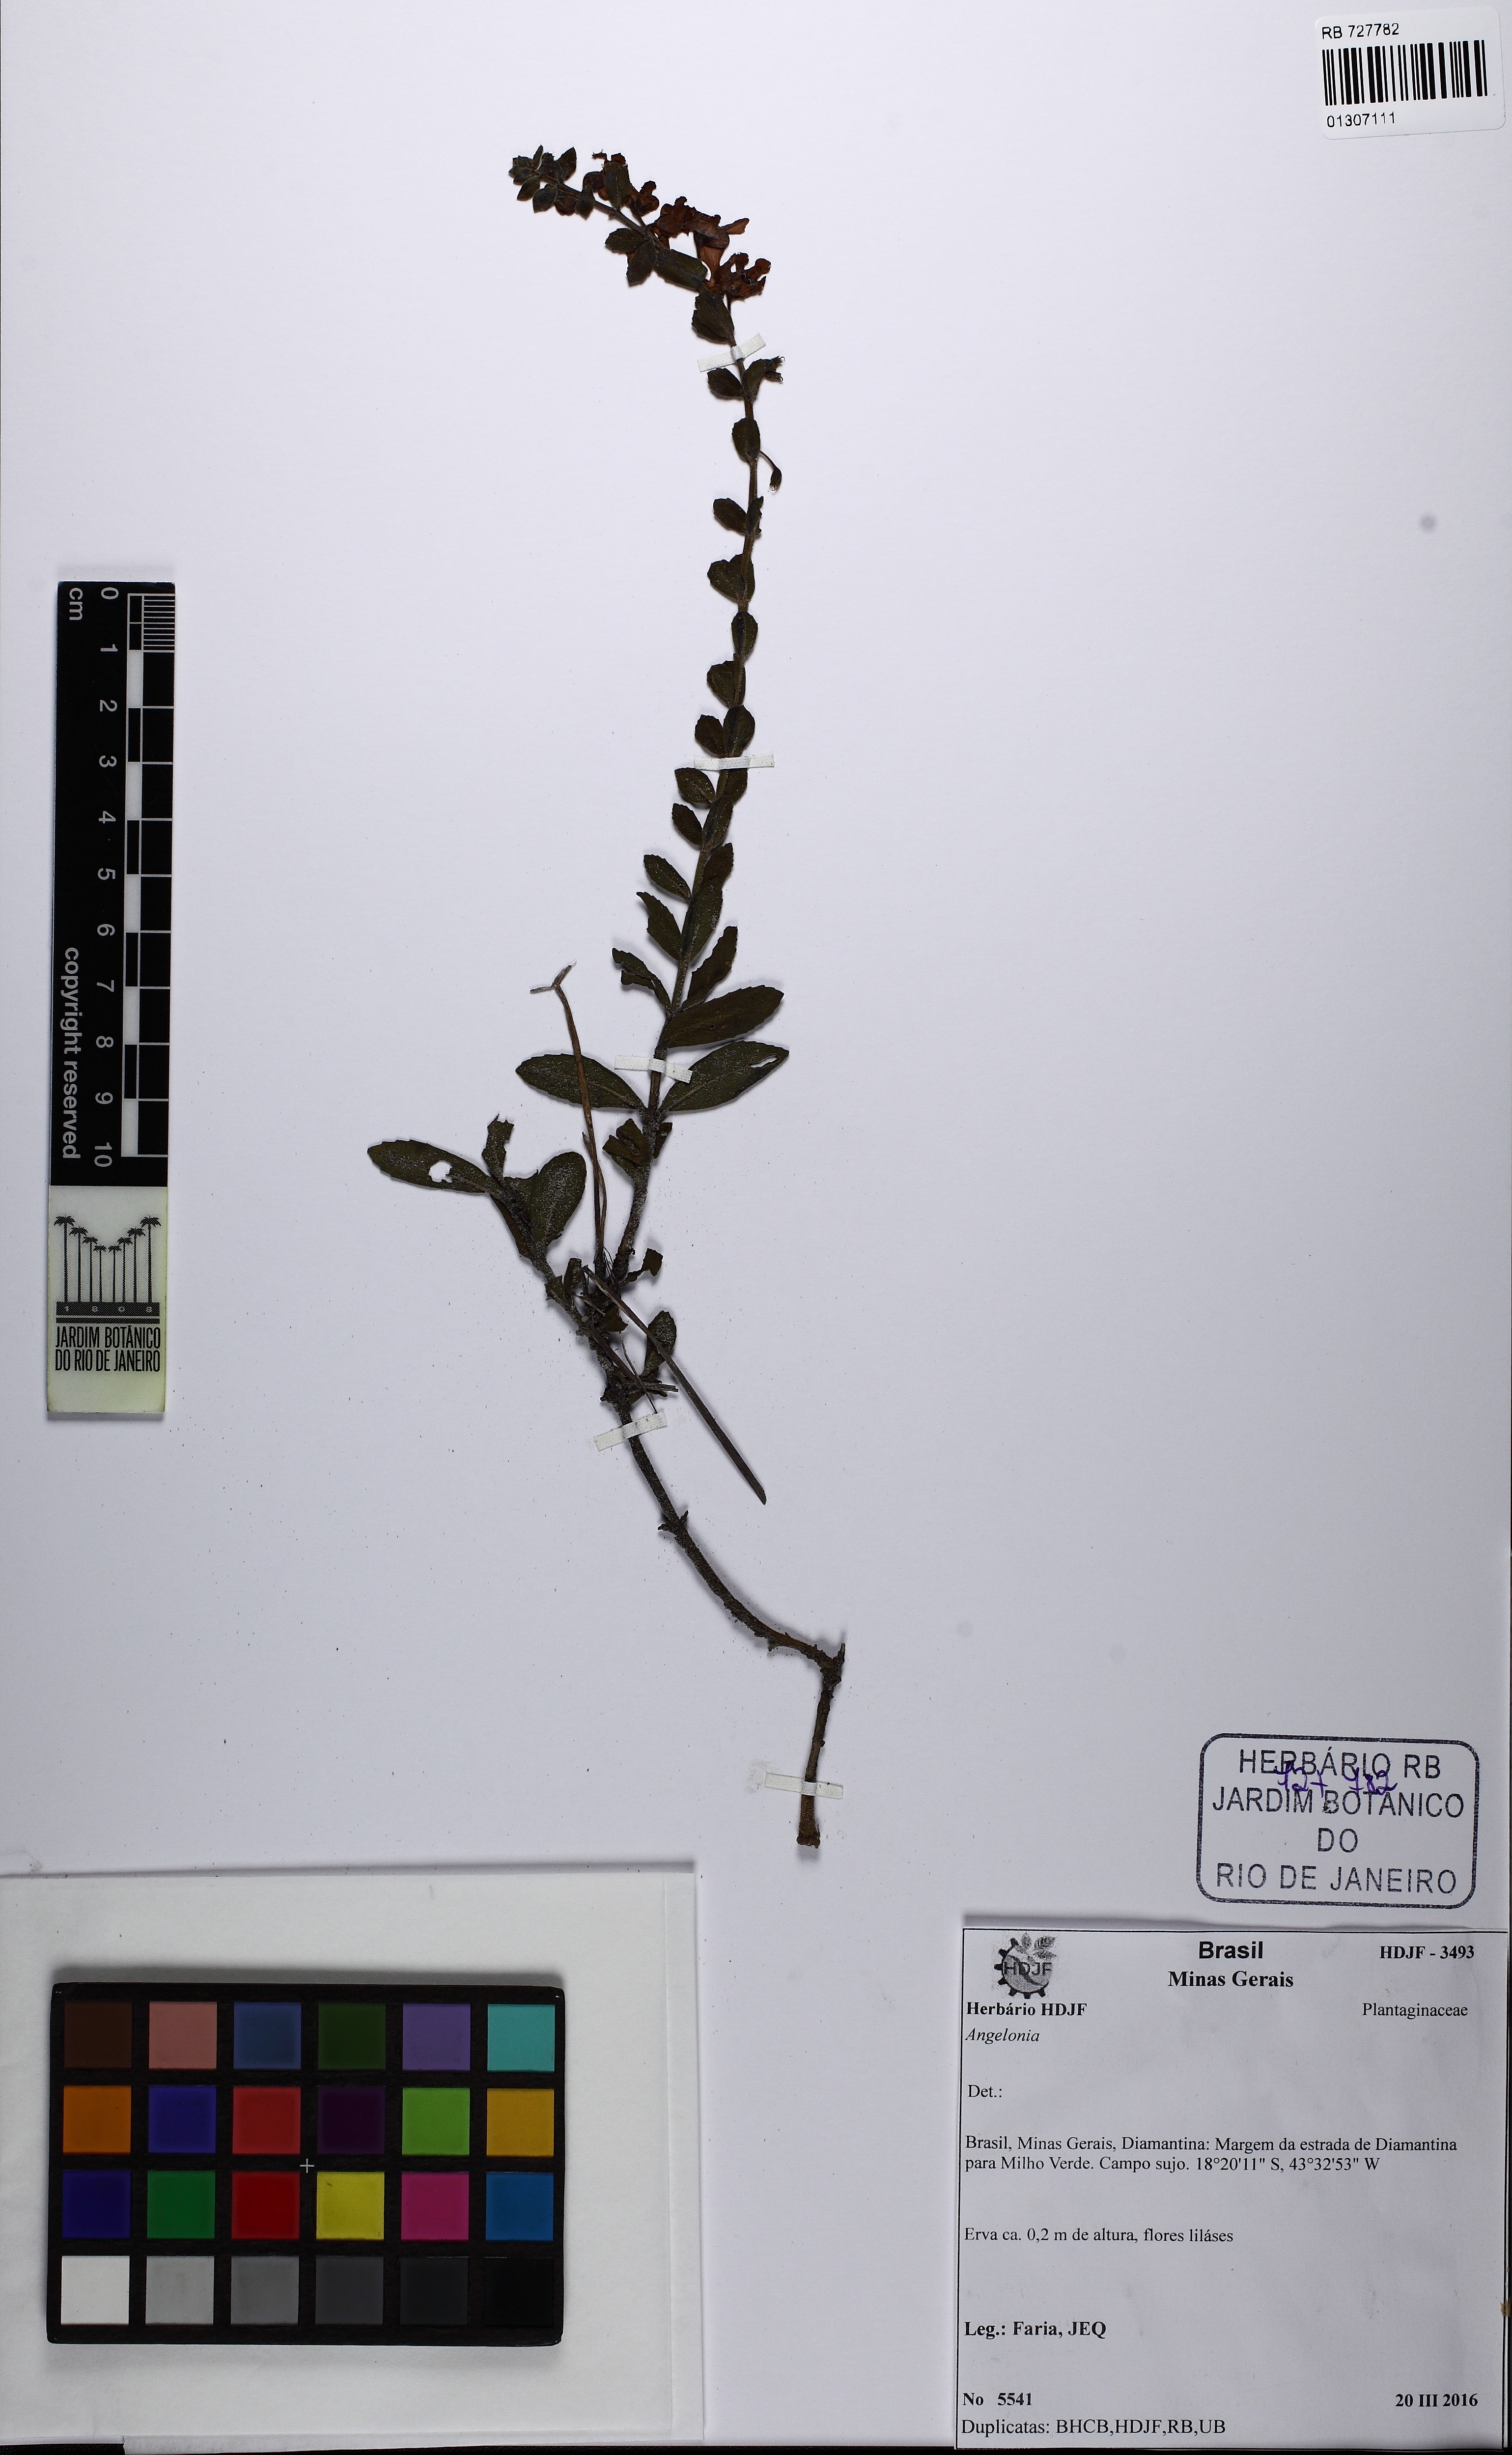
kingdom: Plantae
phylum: Tracheophyta
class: Magnoliopsida
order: Lamiales
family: Plantaginaceae
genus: Angelonia
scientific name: Angelonia crassifolia
